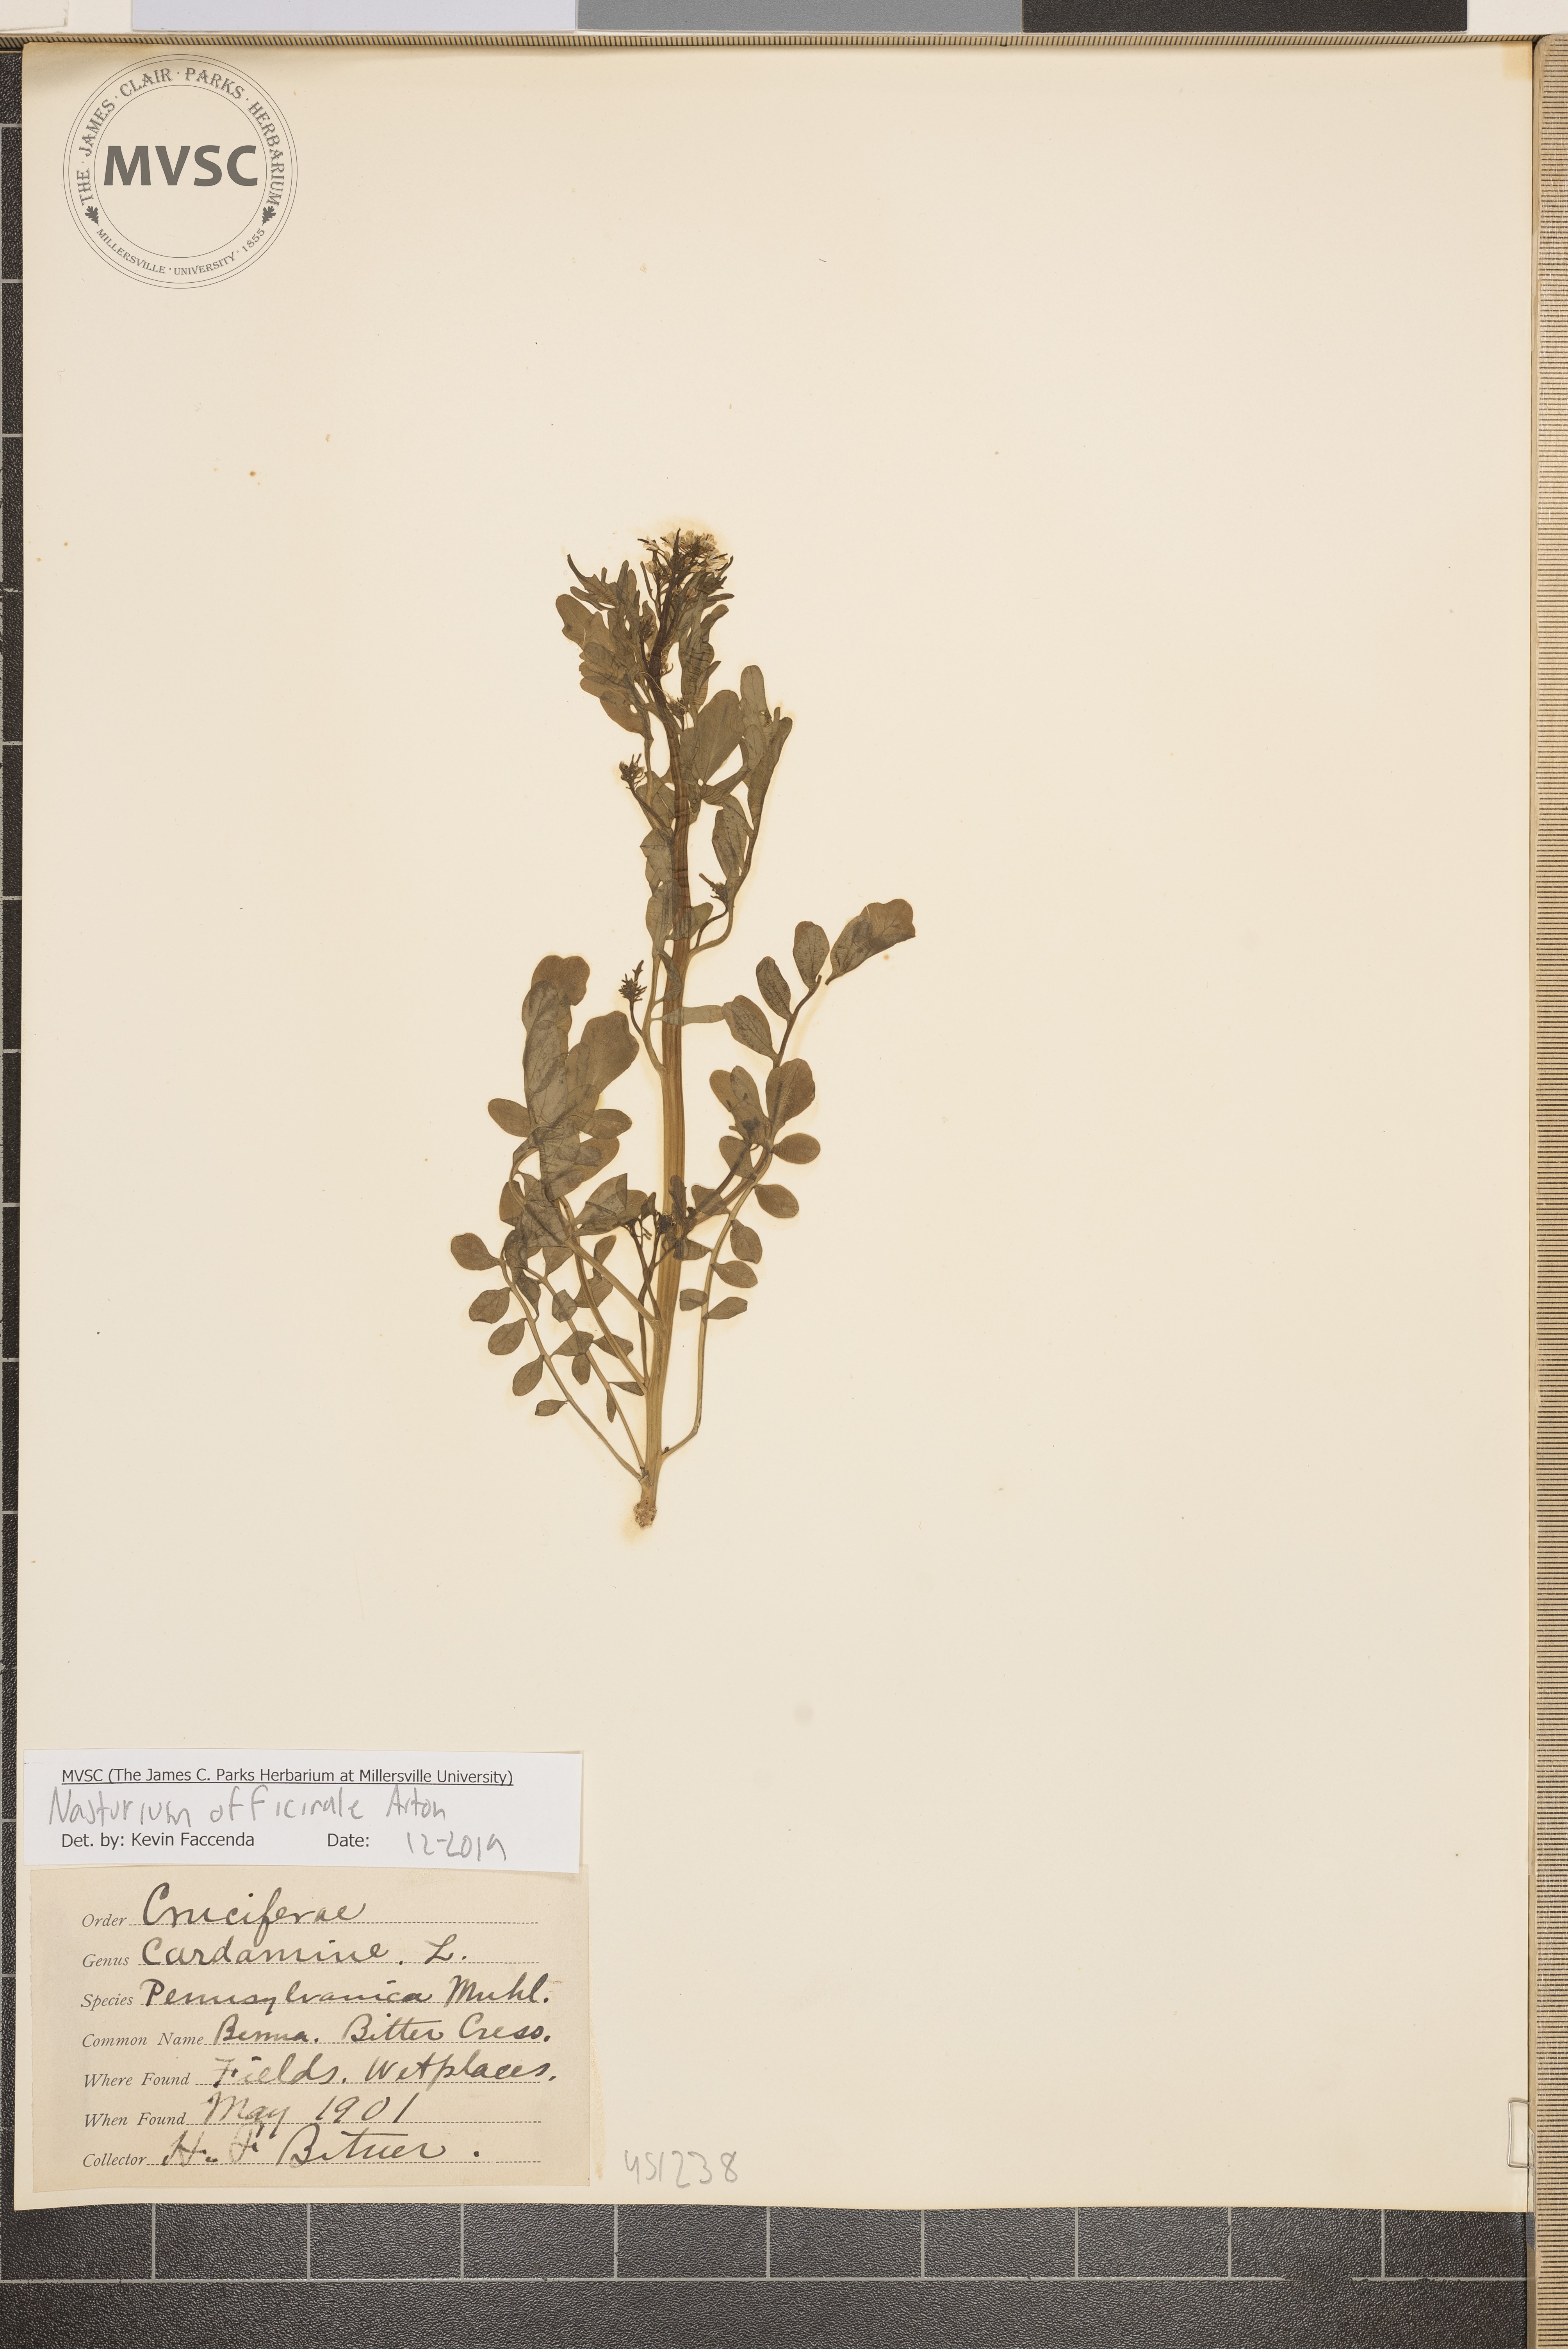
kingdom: Plantae
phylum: Tracheophyta
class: Magnoliopsida
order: Brassicales
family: Brassicaceae
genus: Nasturtium
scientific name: Nasturtium officinale
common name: Watercress
